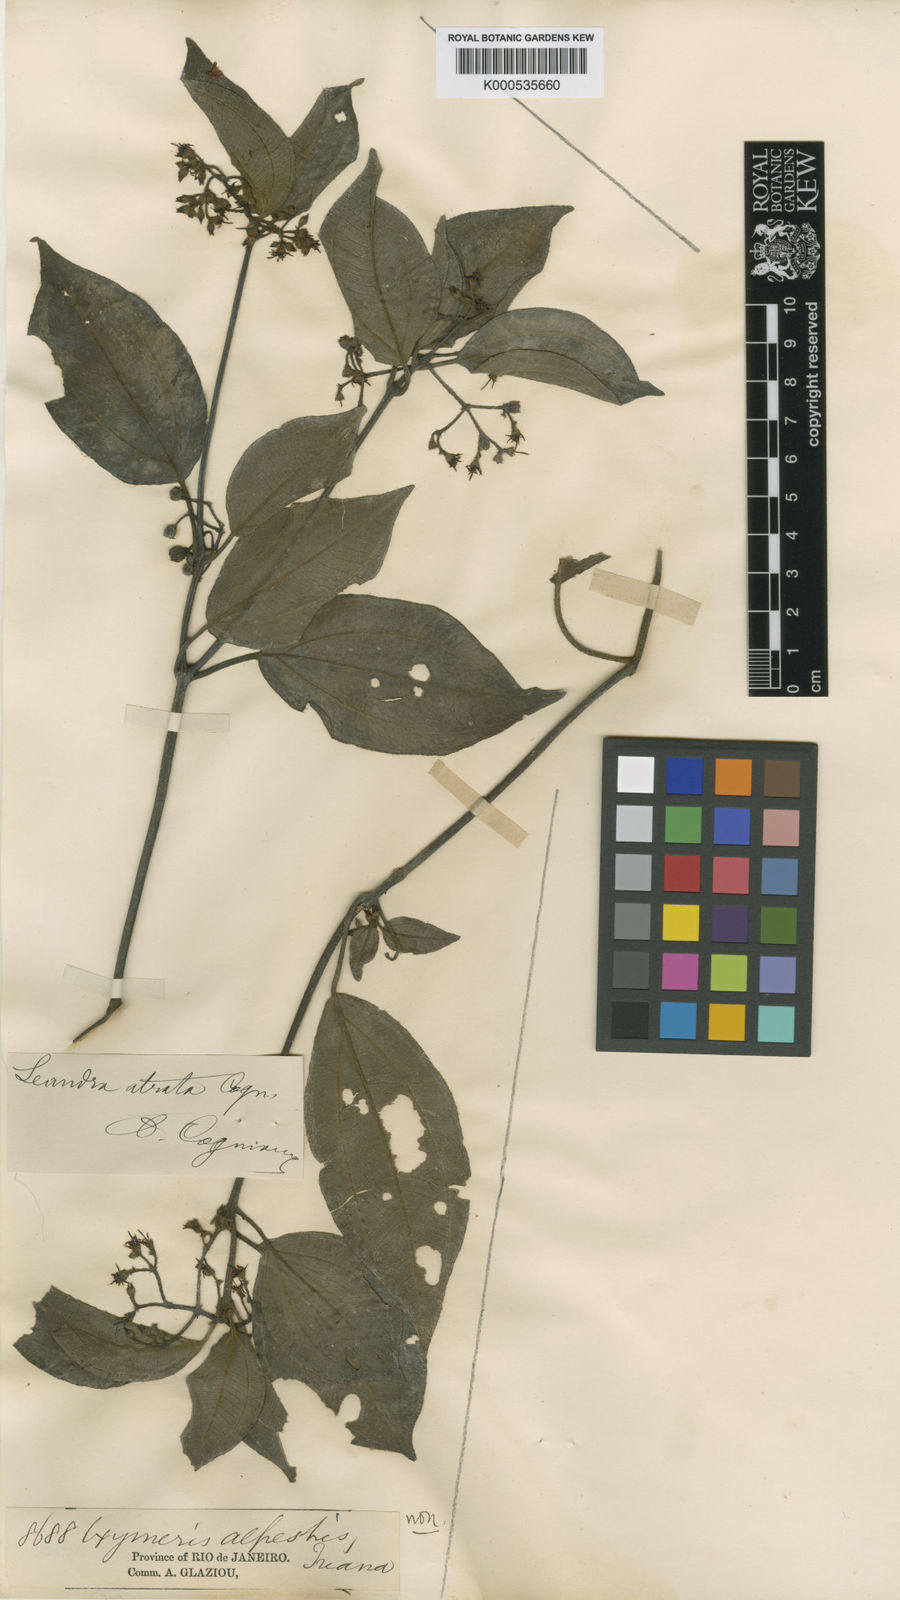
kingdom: Plantae
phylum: Tracheophyta
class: Magnoliopsida
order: Myrtales
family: Melastomataceae
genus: Miconia
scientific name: Miconia leatrata
